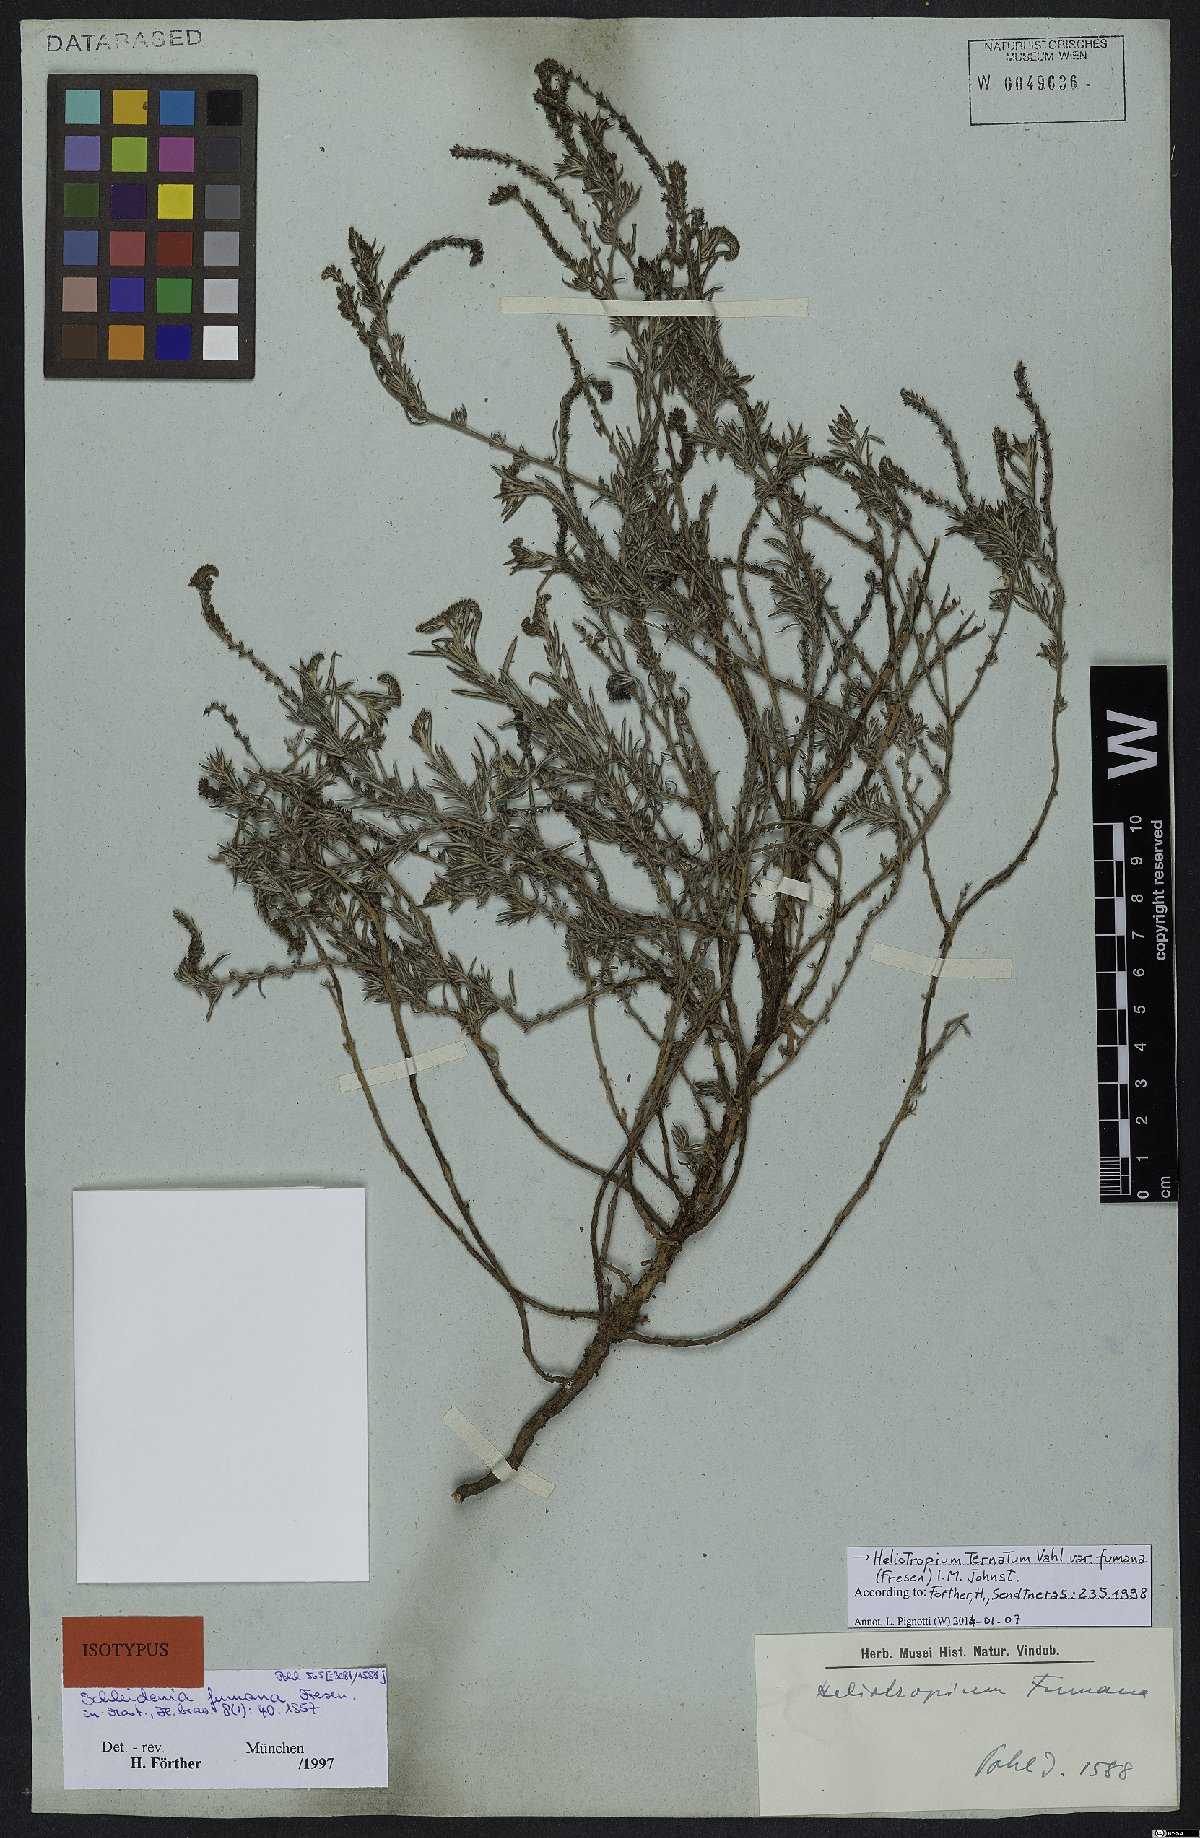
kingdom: Plantae
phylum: Tracheophyta
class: Magnoliopsida
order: Boraginales
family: Heliotropiaceae
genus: Euploca
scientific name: Euploca humilis
